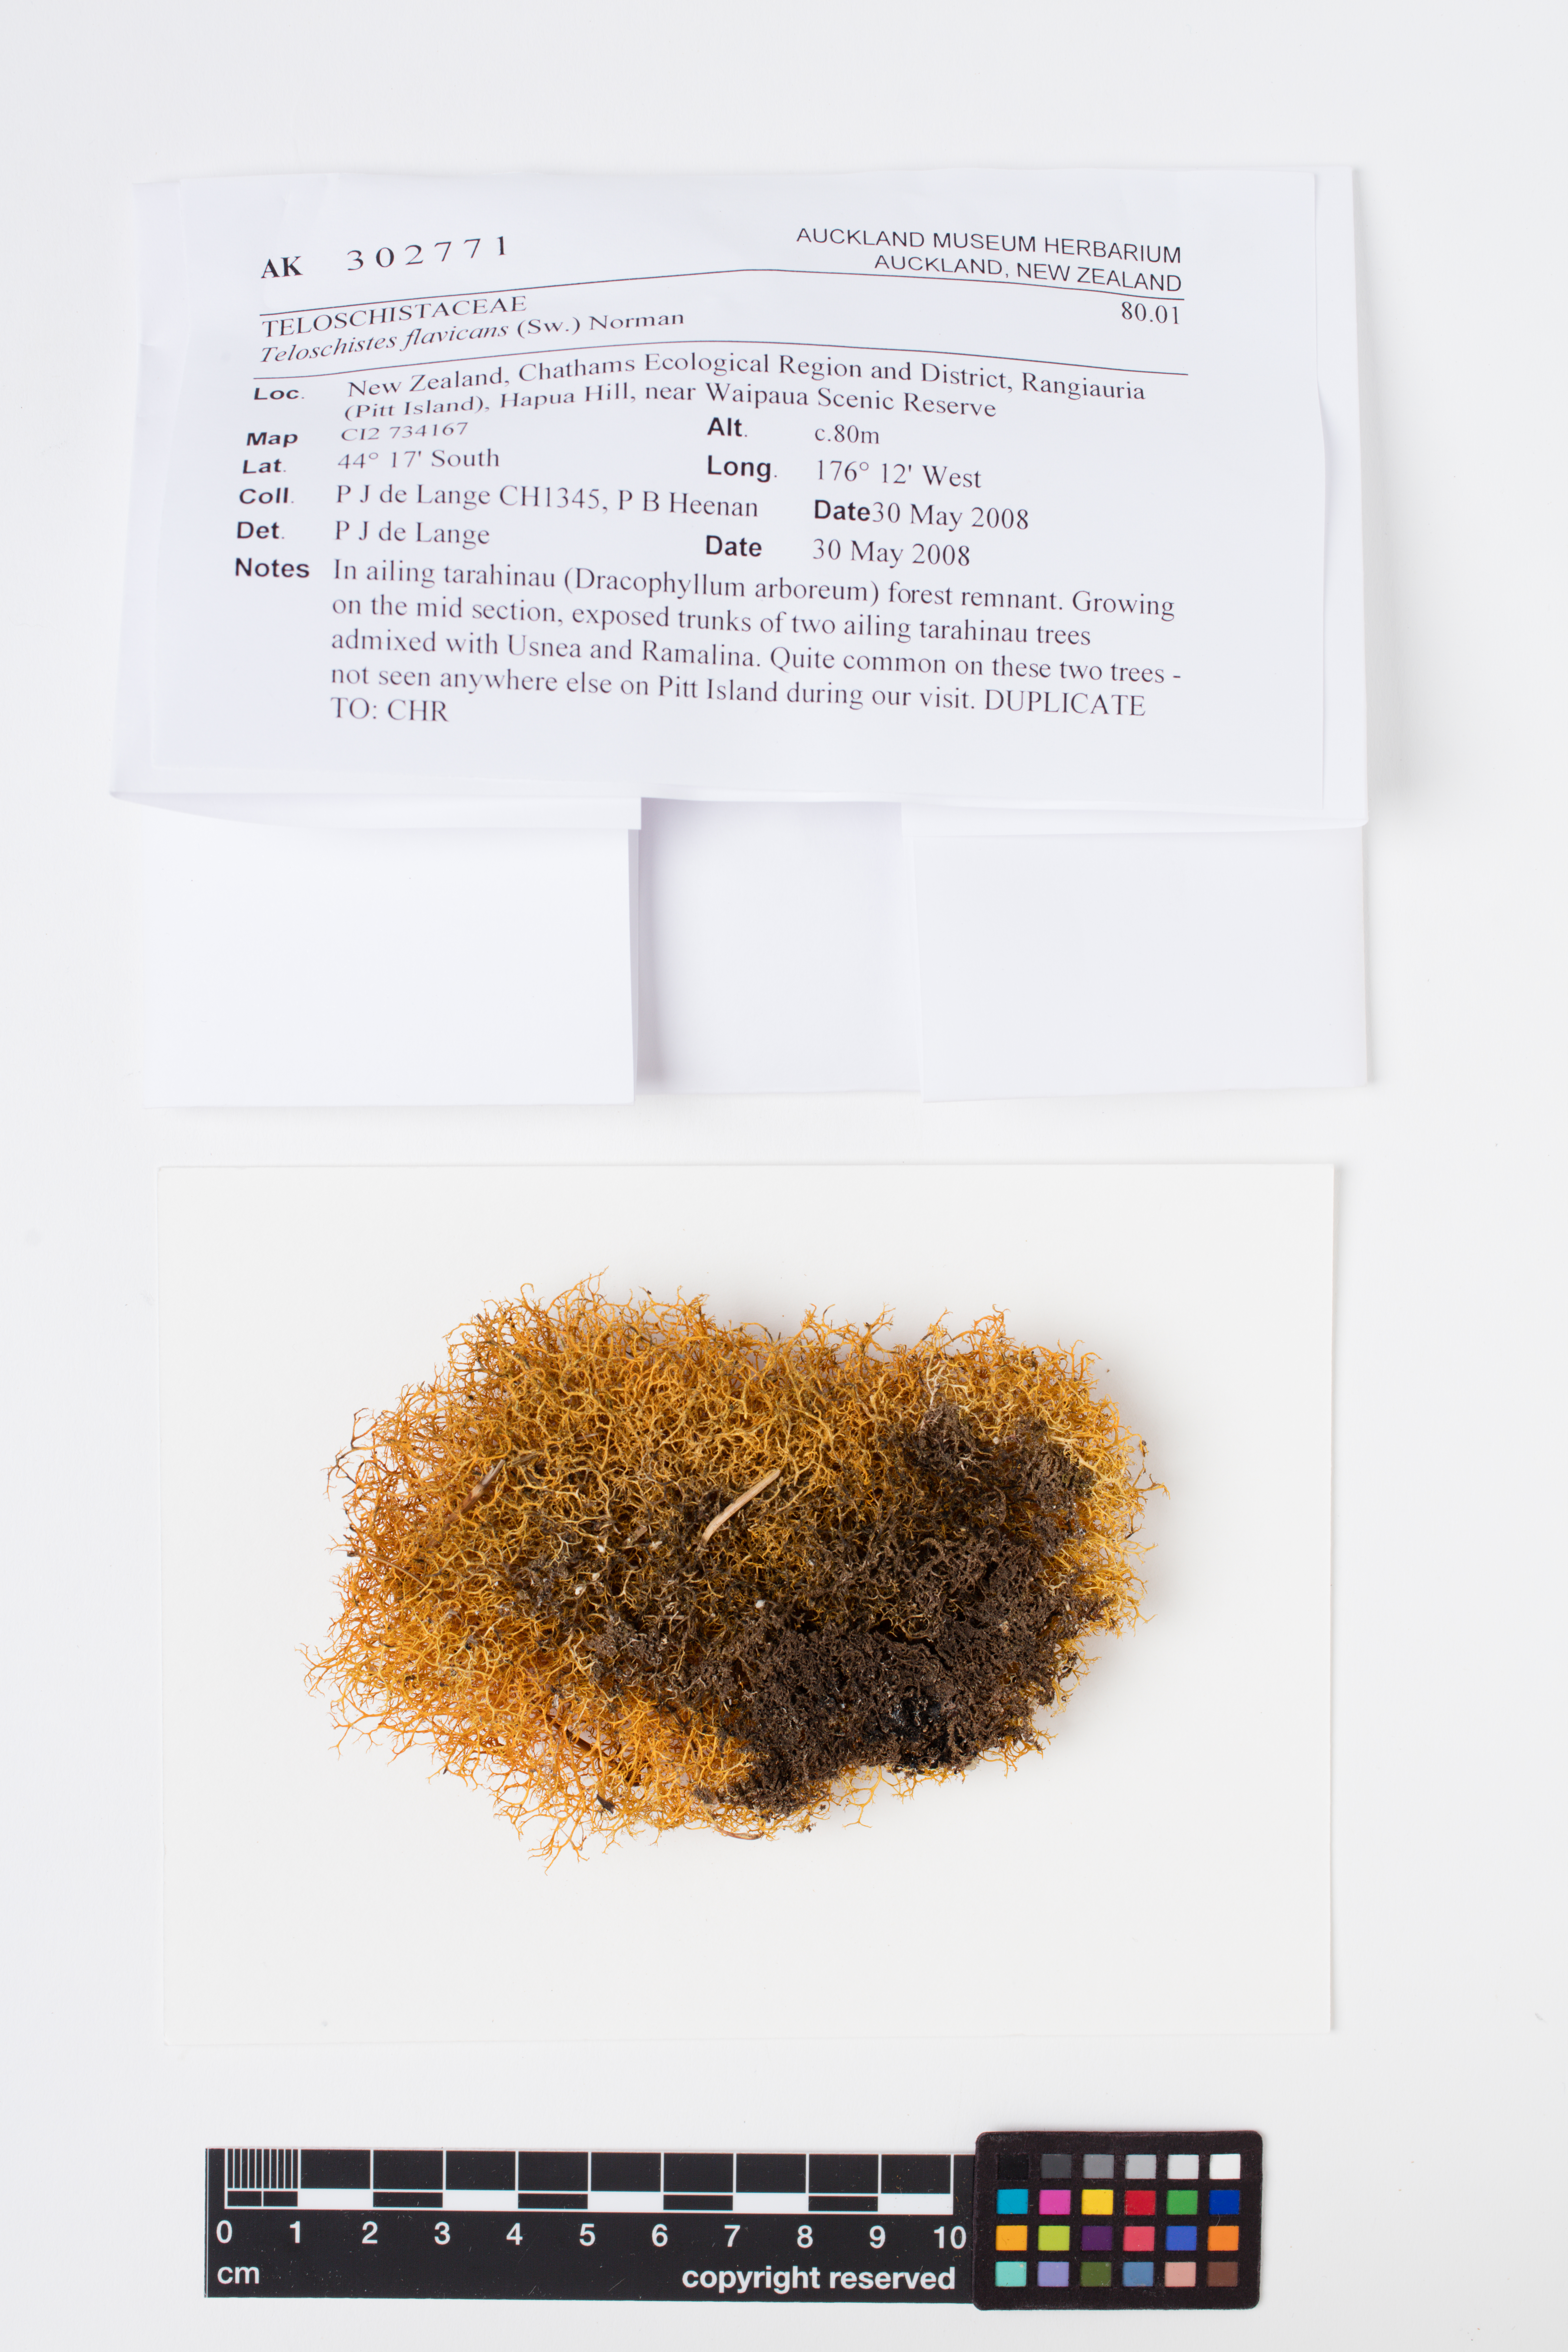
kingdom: Fungi
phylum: Ascomycota
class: Lecanoromycetes
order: Teloschistales
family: Teloschistaceae
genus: Teloschistes
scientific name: Teloschistes flavicans
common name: Golden hair-lichen
